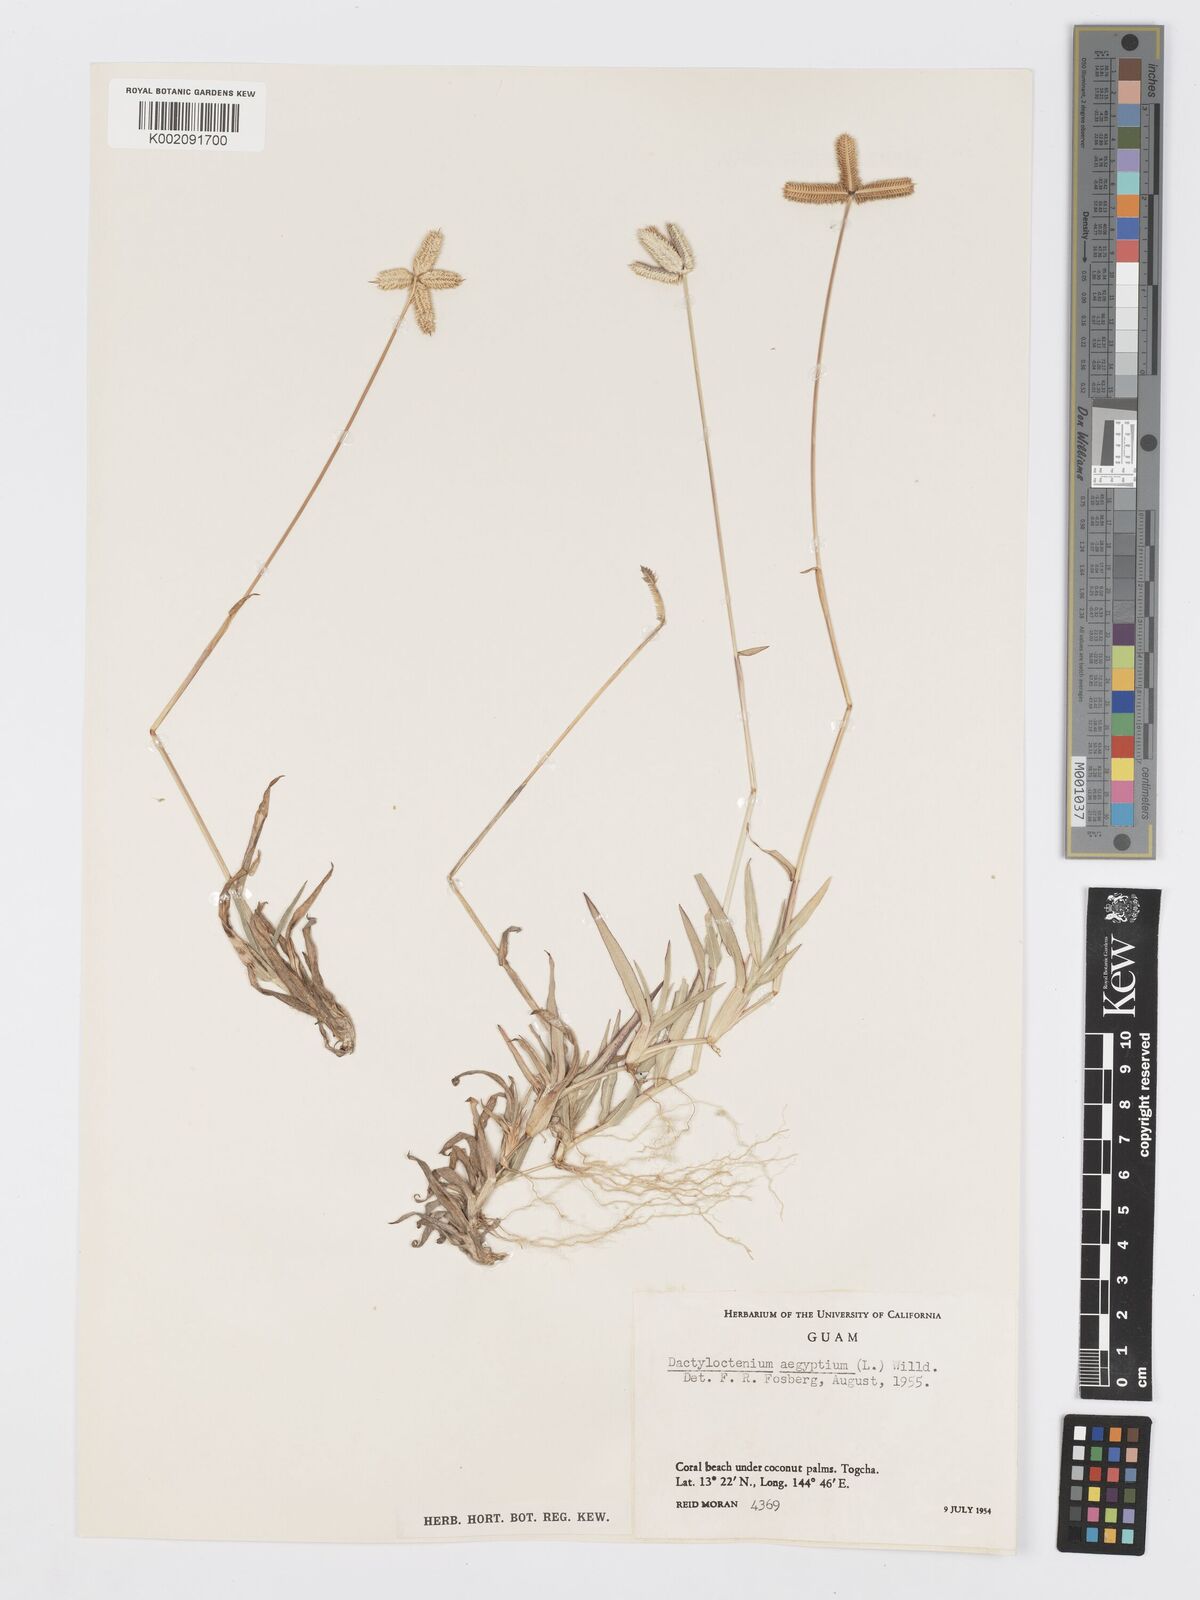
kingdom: Plantae
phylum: Tracheophyta
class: Liliopsida
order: Poales
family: Poaceae
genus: Dactyloctenium
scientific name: Dactyloctenium aegyptium
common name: Egyptian grass
